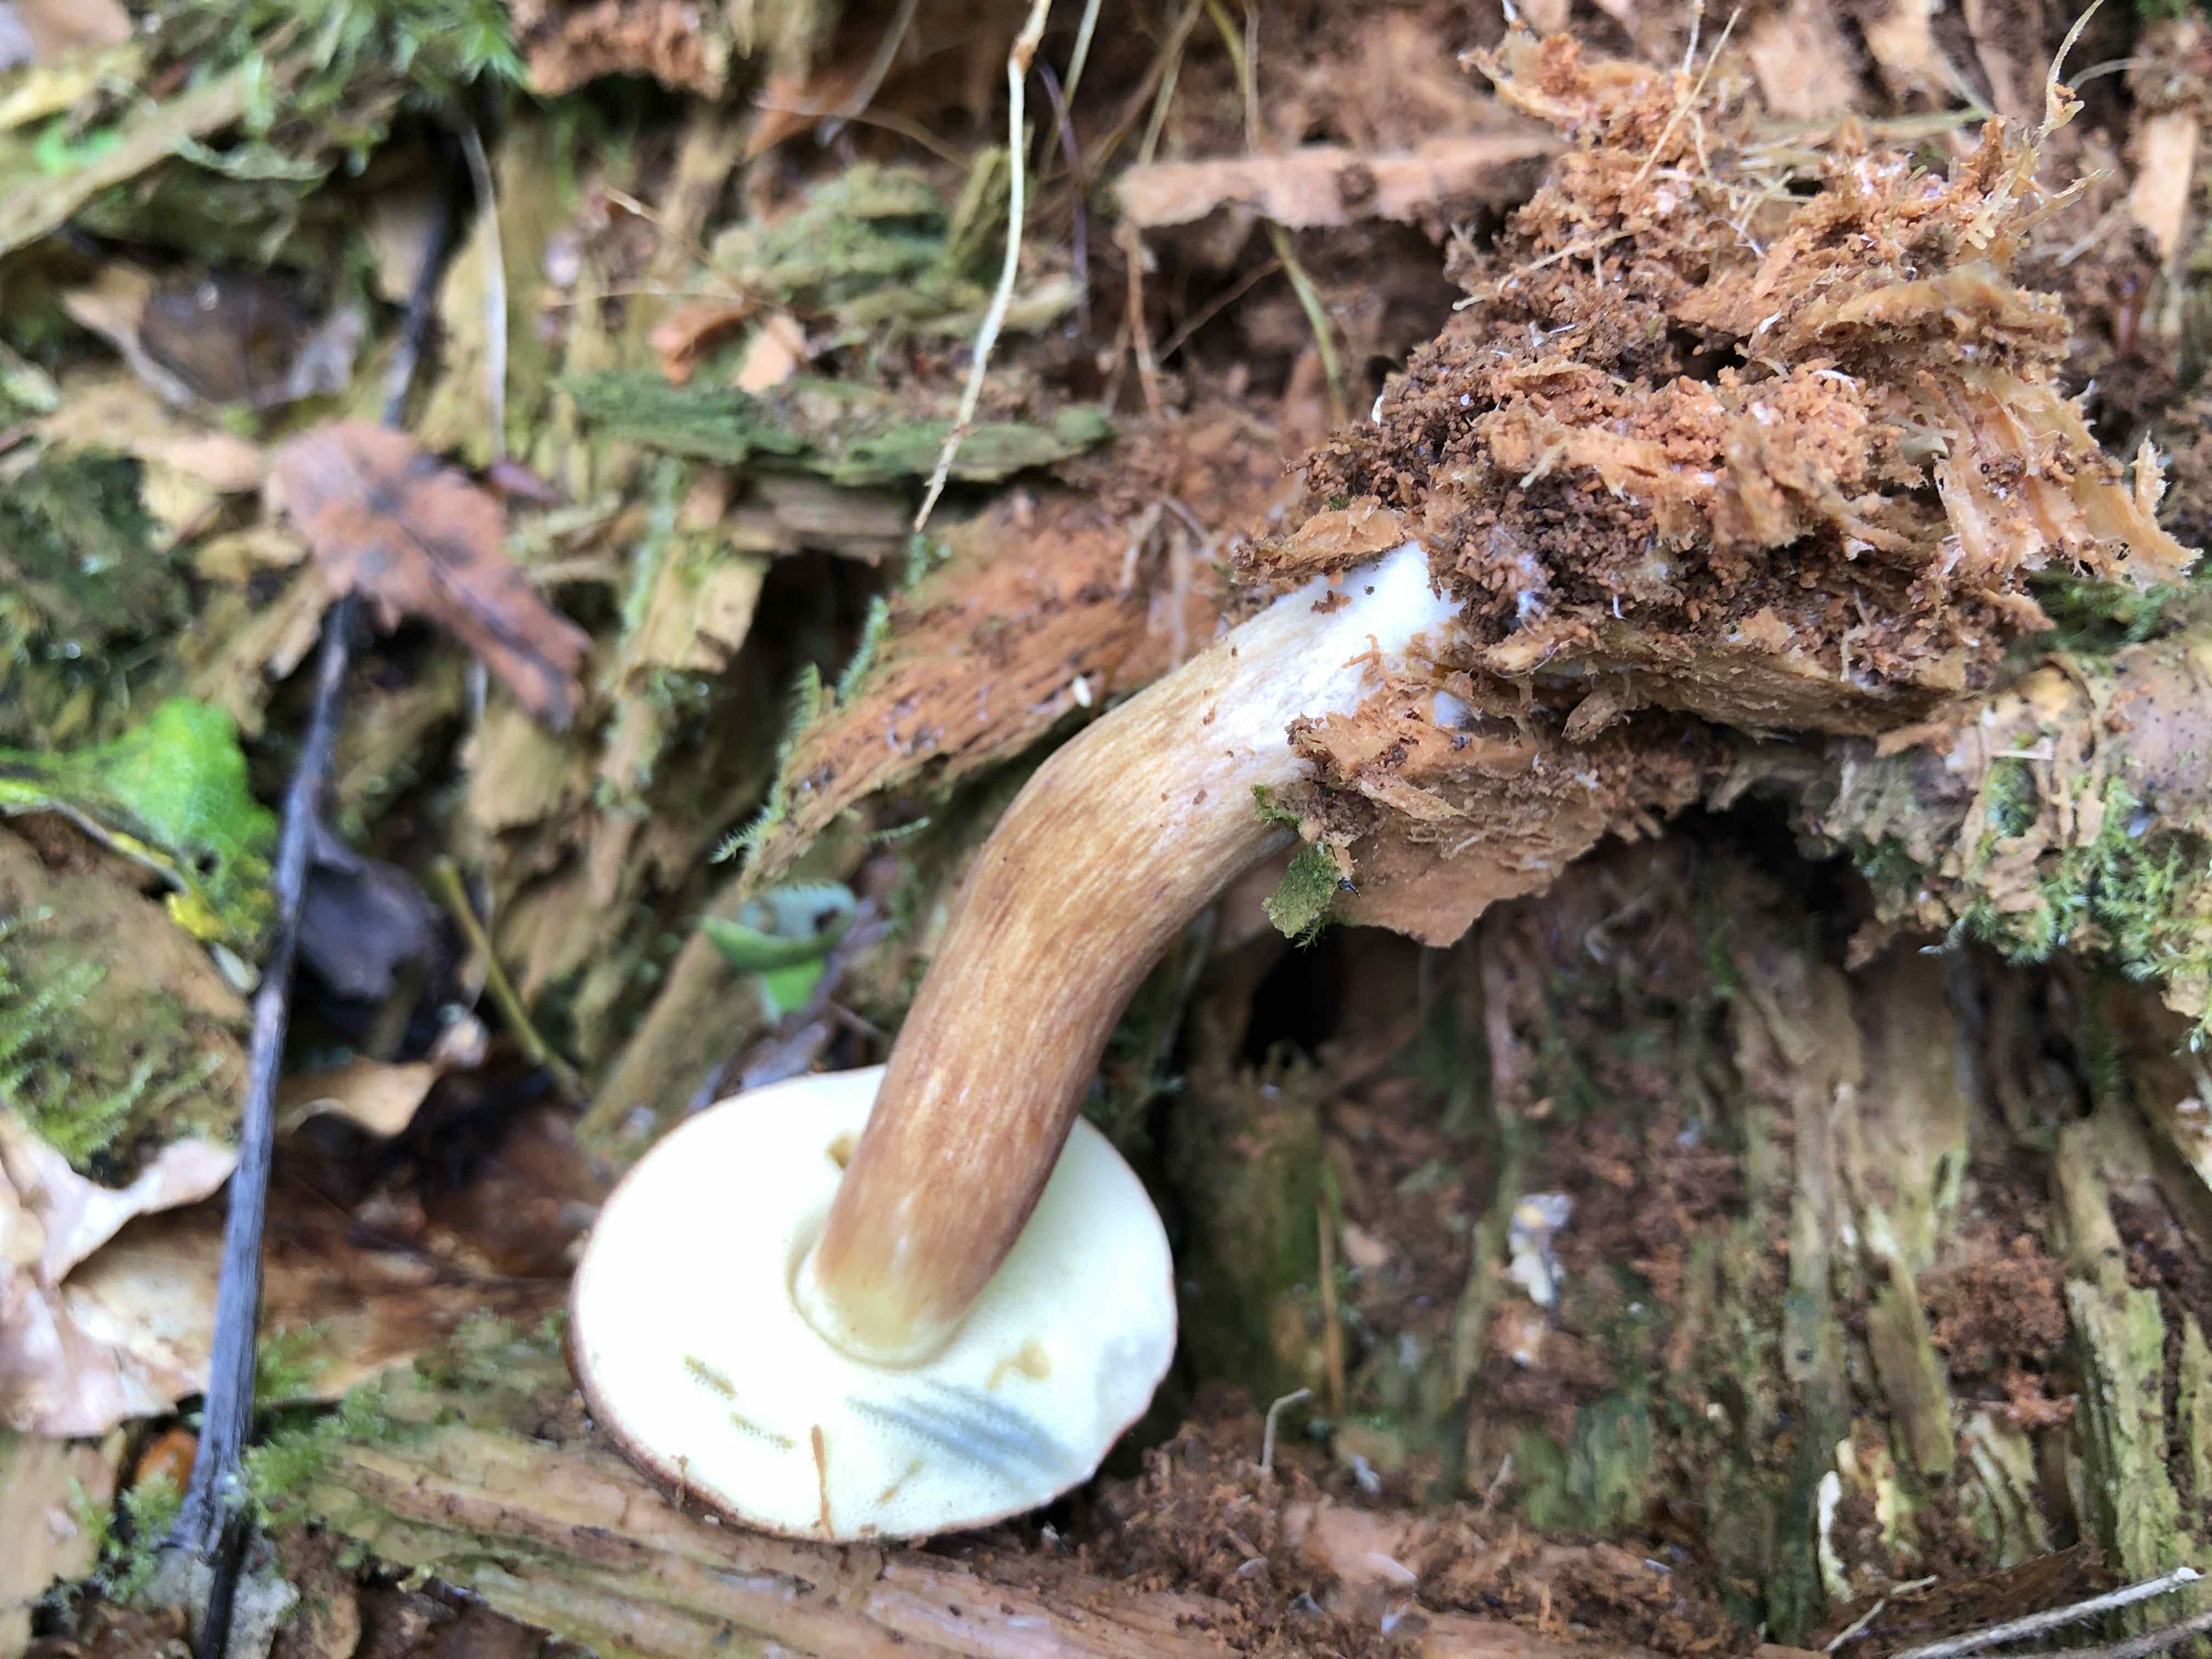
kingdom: Fungi
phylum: Basidiomycota
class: Agaricomycetes
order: Boletales
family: Boletaceae
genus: Imleria
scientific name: Imleria badia
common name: brunstokket rørhat
